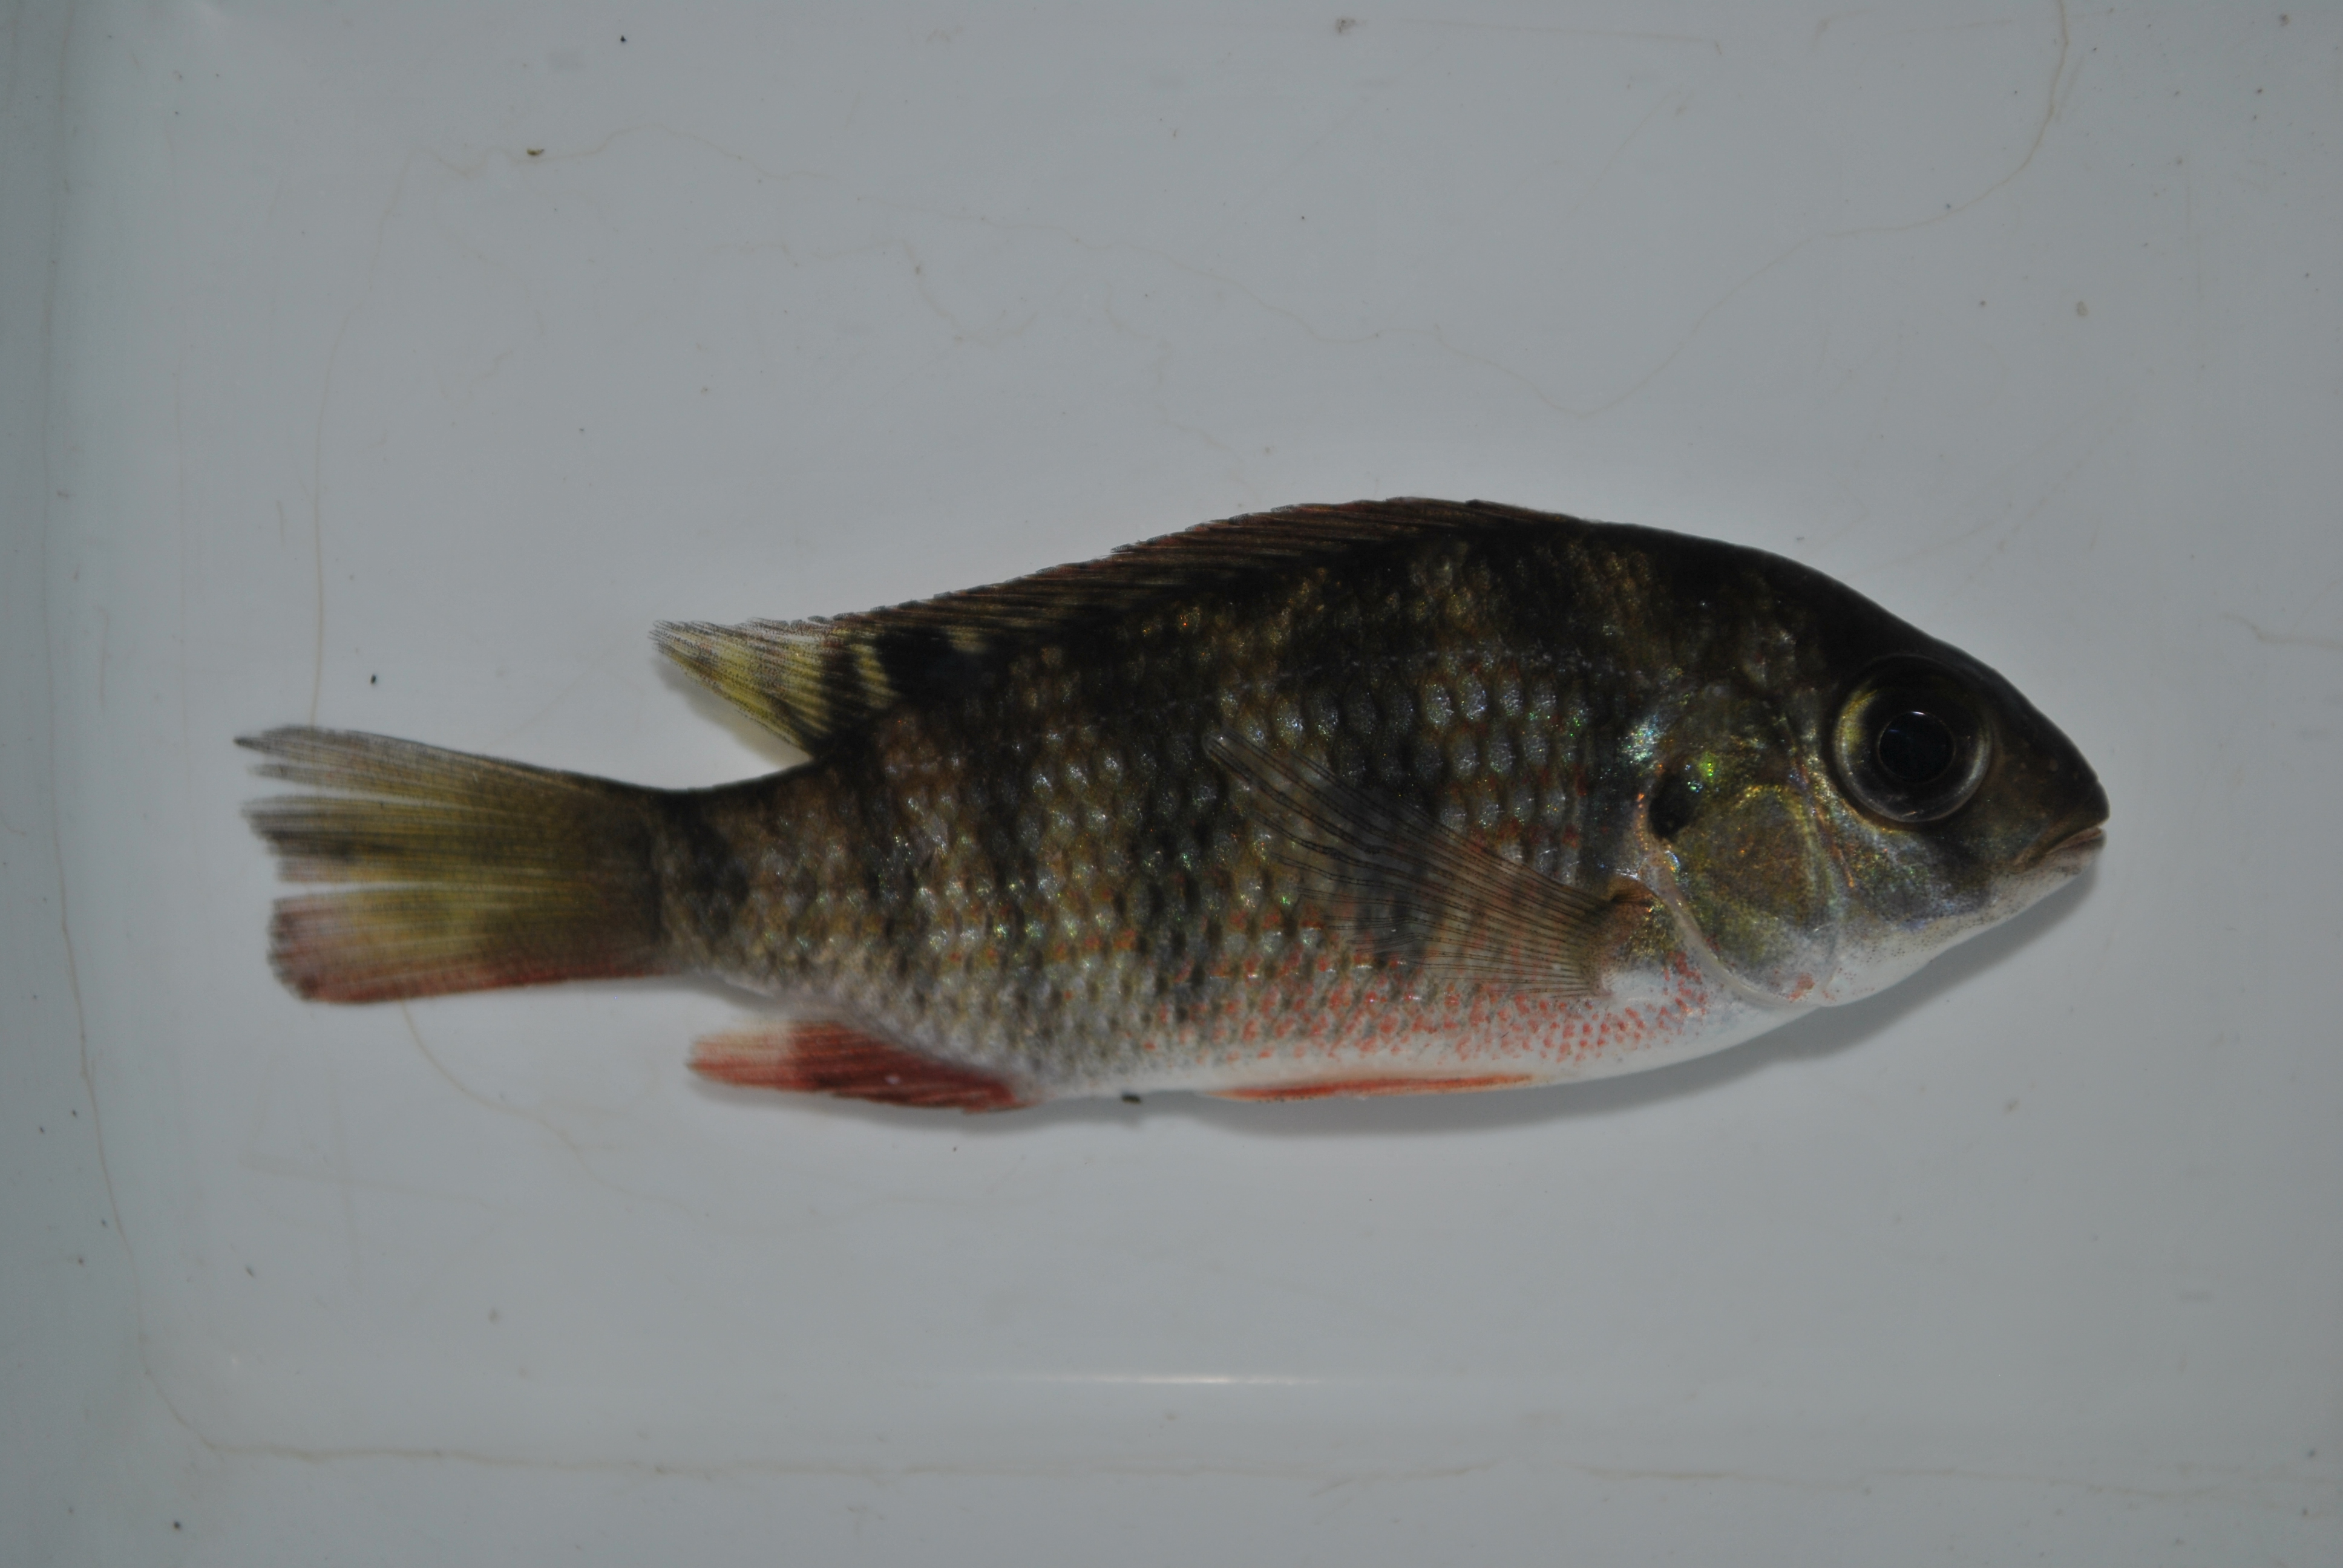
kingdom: Animalia
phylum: Chordata
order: Perciformes
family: Cichlidae
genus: Coptodon
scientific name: Coptodon rendalli
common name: Redbreast tilapia
